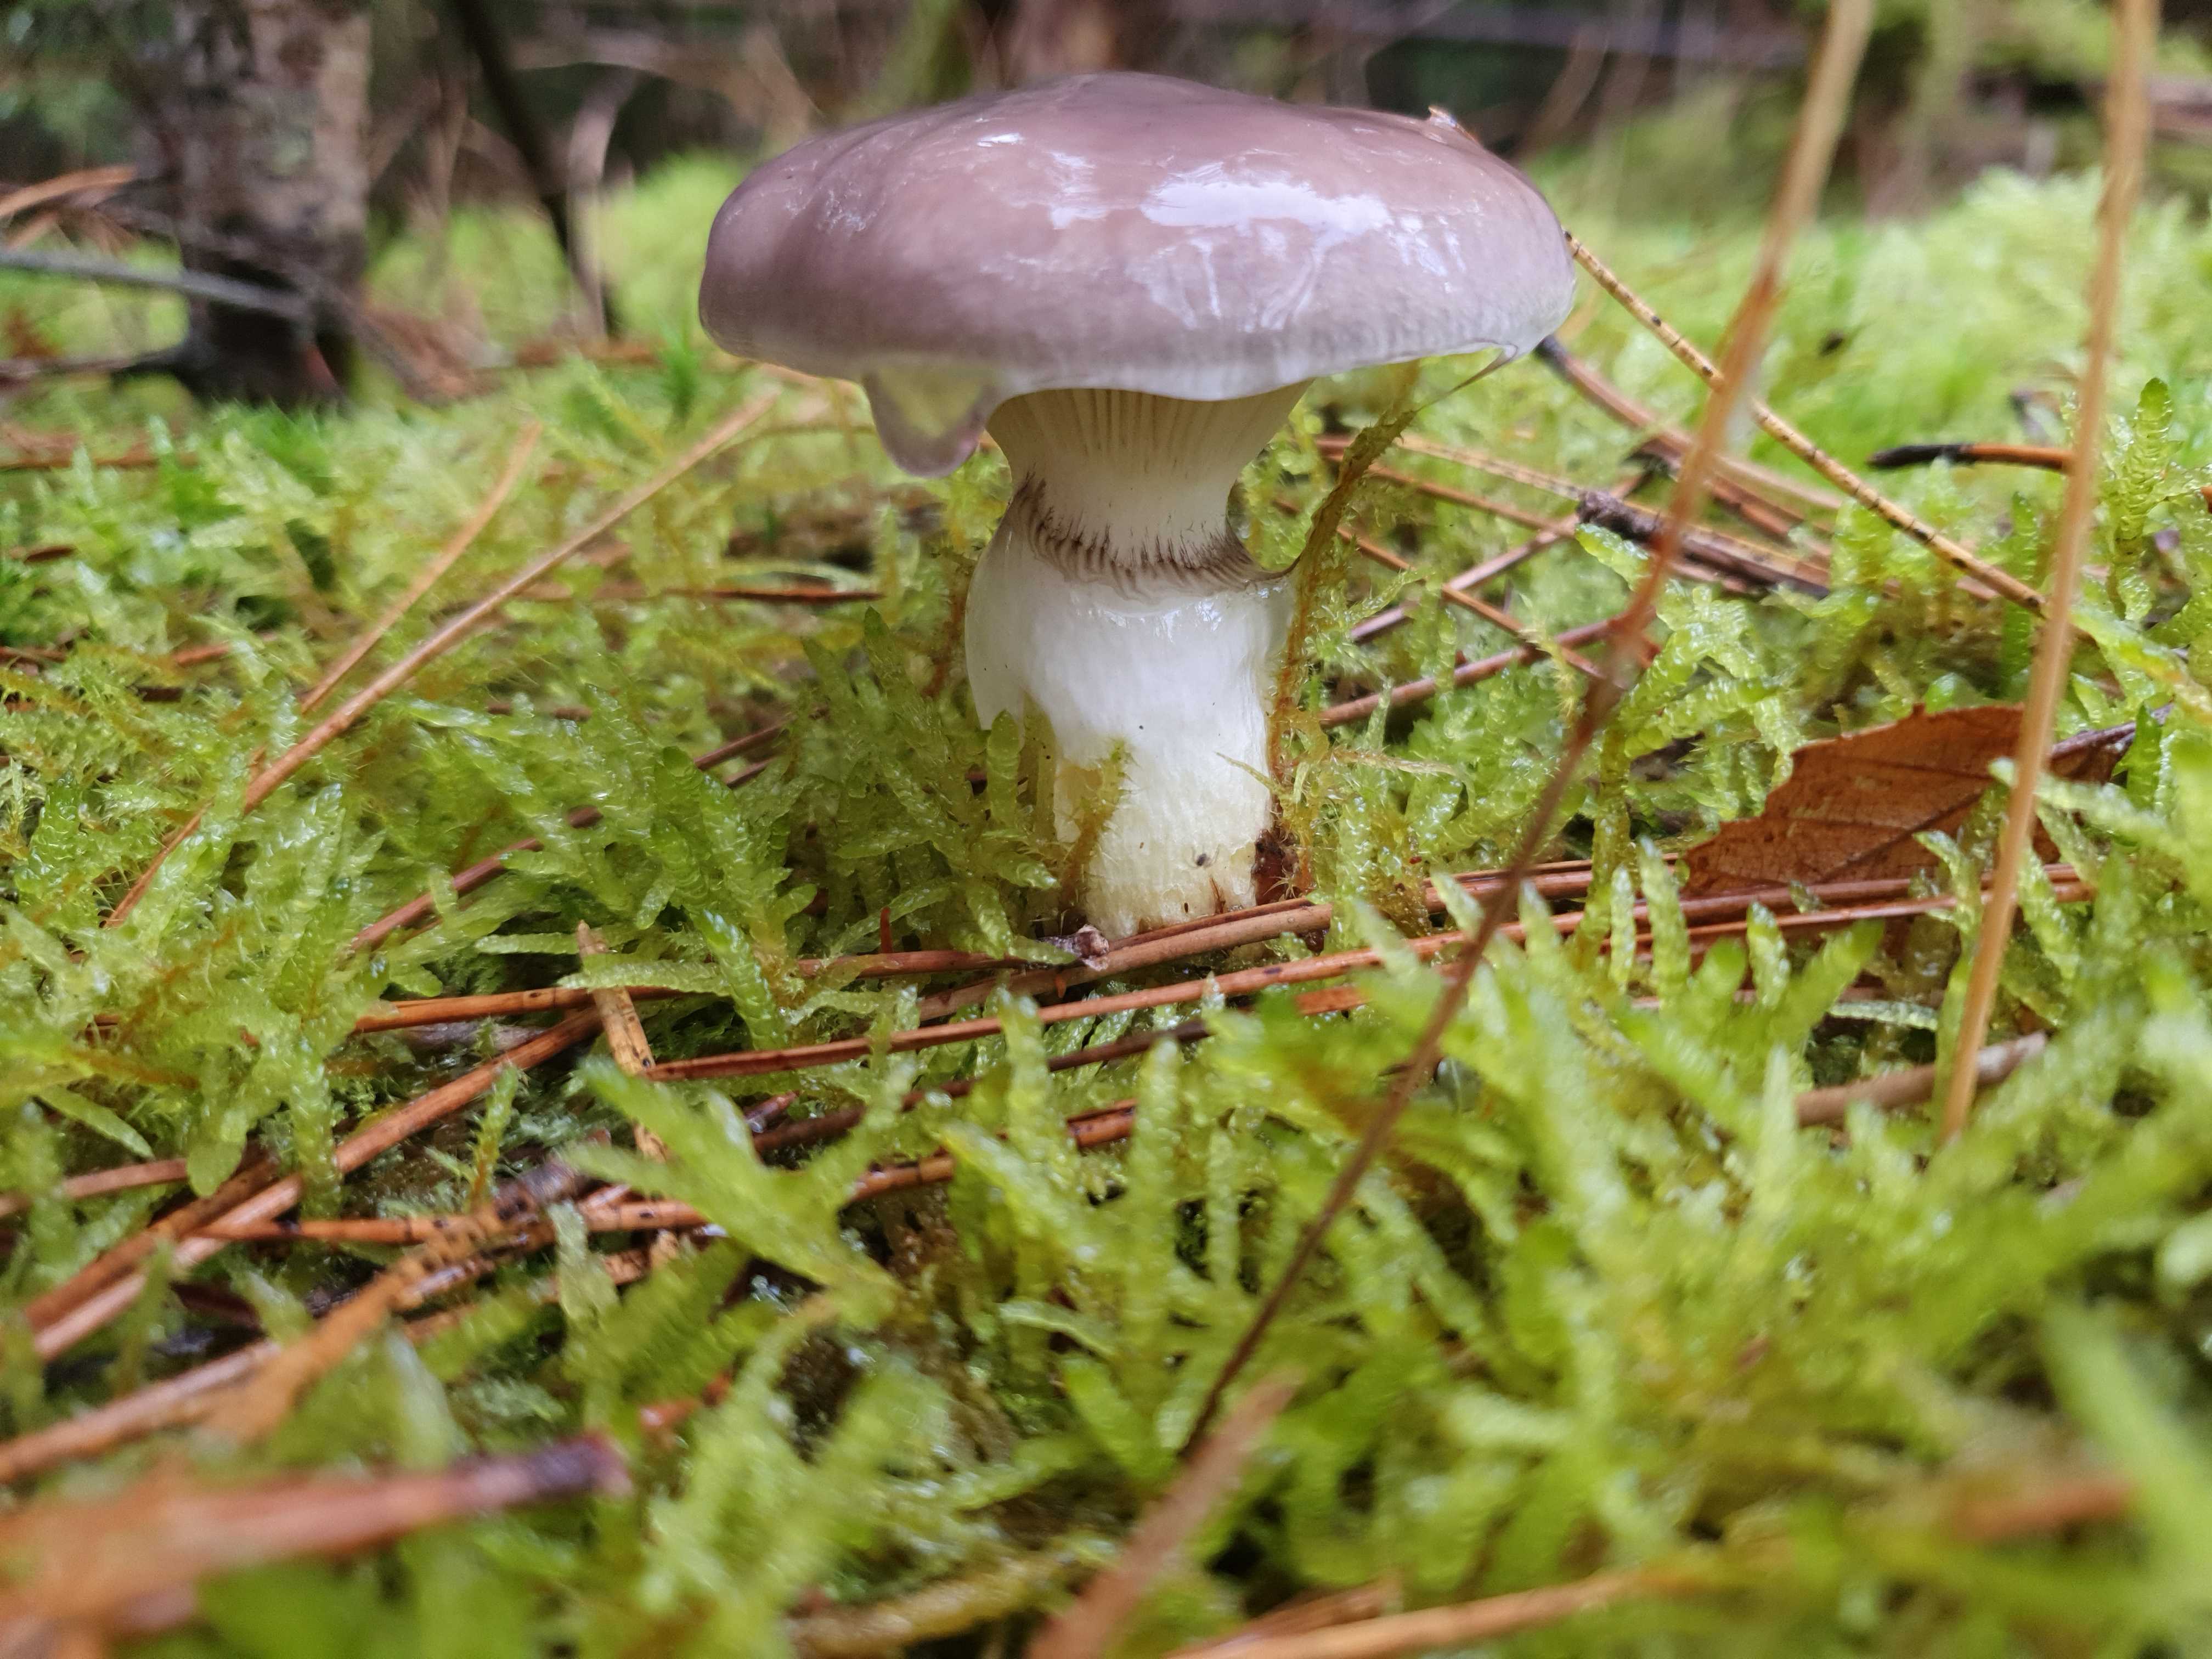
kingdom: Fungi
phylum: Basidiomycota
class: Agaricomycetes
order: Boletales
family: Gomphidiaceae
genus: Gomphidius
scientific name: Gomphidius glutinosus
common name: grå slimslør
